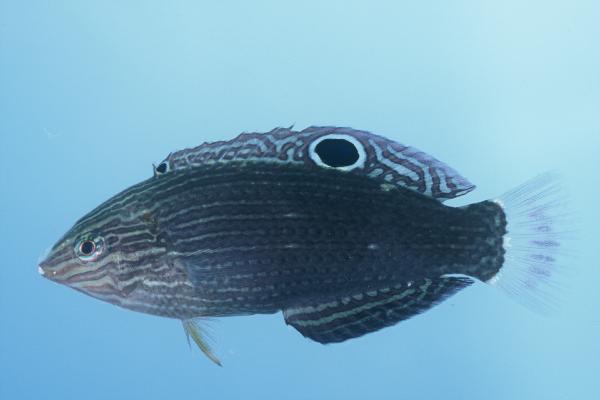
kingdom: Animalia
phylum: Chordata
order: Perciformes
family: Labridae
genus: Halichoeres
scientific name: Halichoeres marginatus
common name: Dusky wrasse
